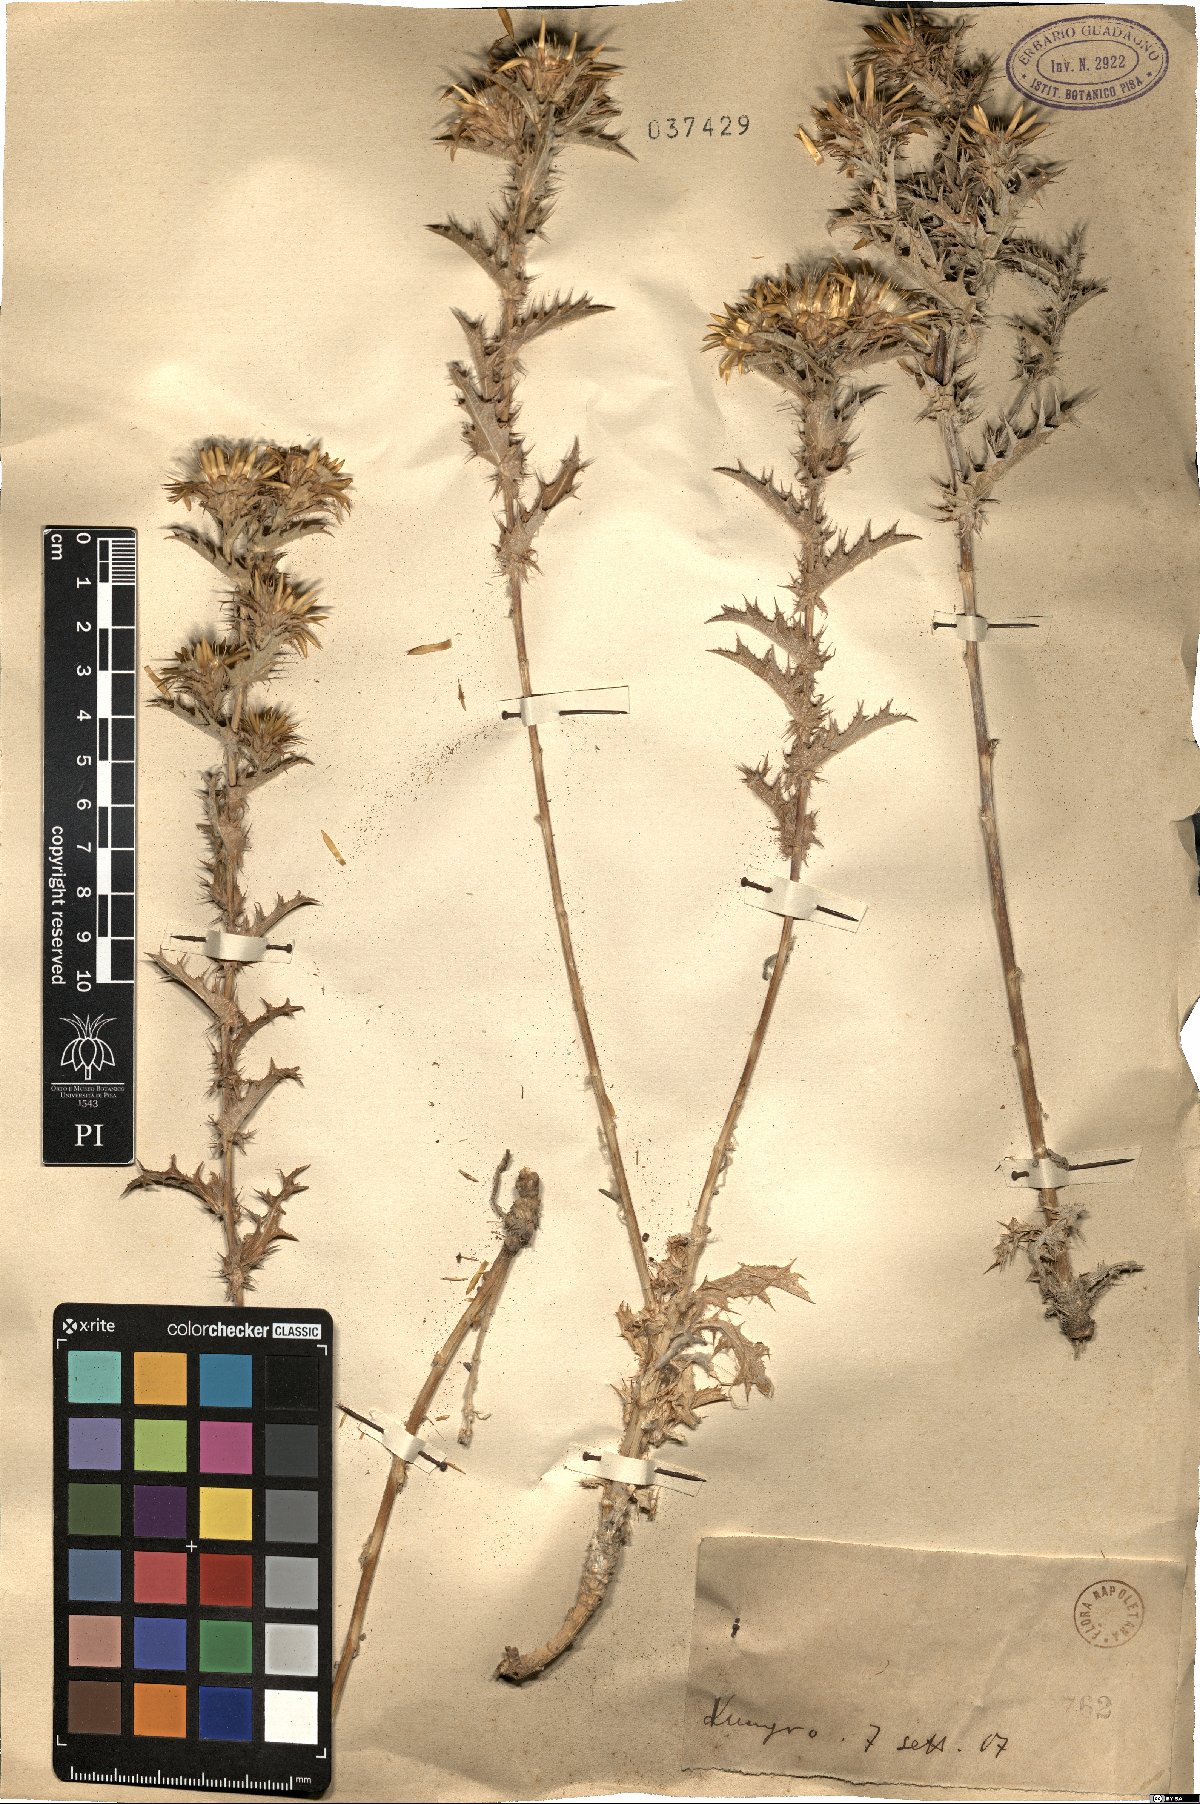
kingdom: Plantae
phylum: Tracheophyta
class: Magnoliopsida
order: Asterales
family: Asteraceae
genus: Carlina
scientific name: Carlina
